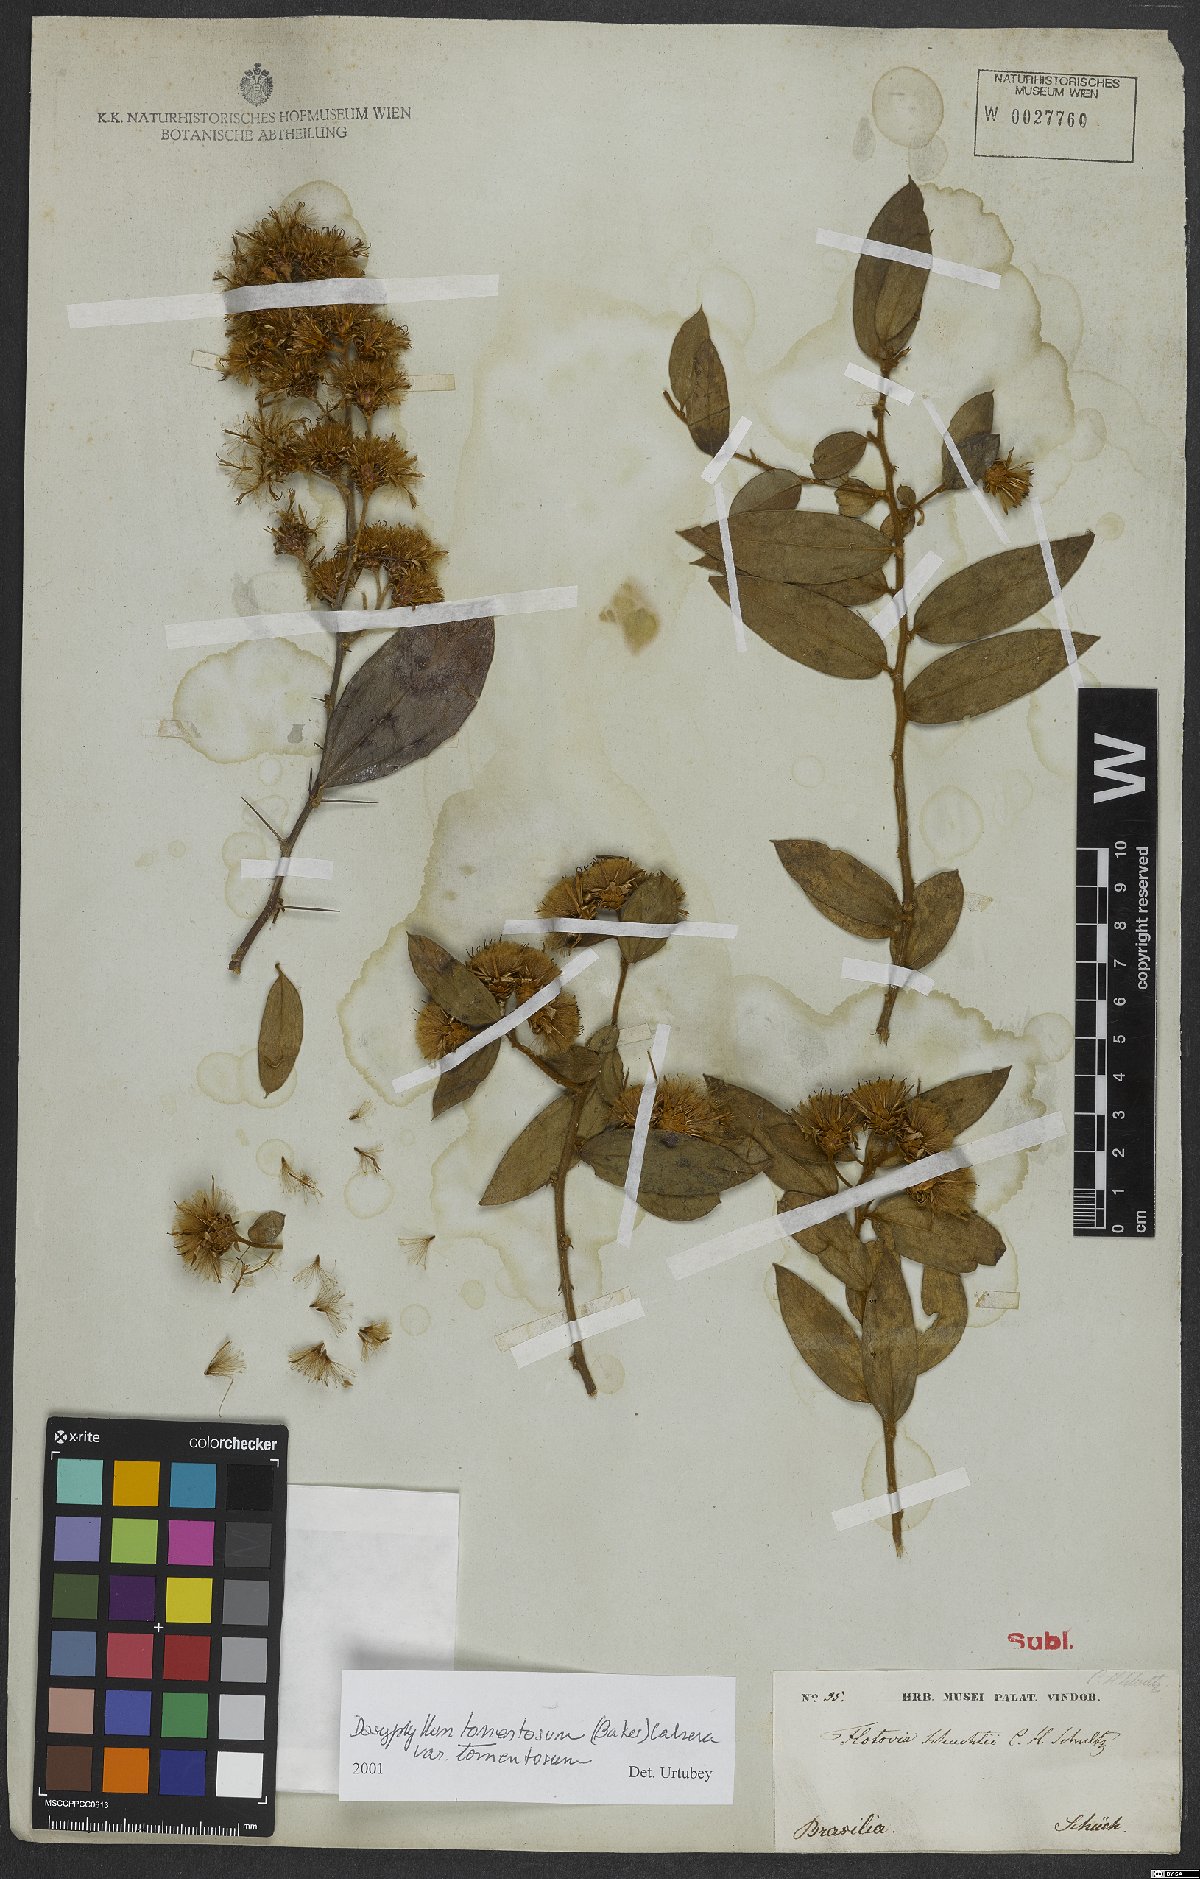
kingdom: Plantae
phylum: Tracheophyta
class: Magnoliopsida
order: Asterales
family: Asteraceae
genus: Dasyphyllum
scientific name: Dasyphyllum tomentosum
